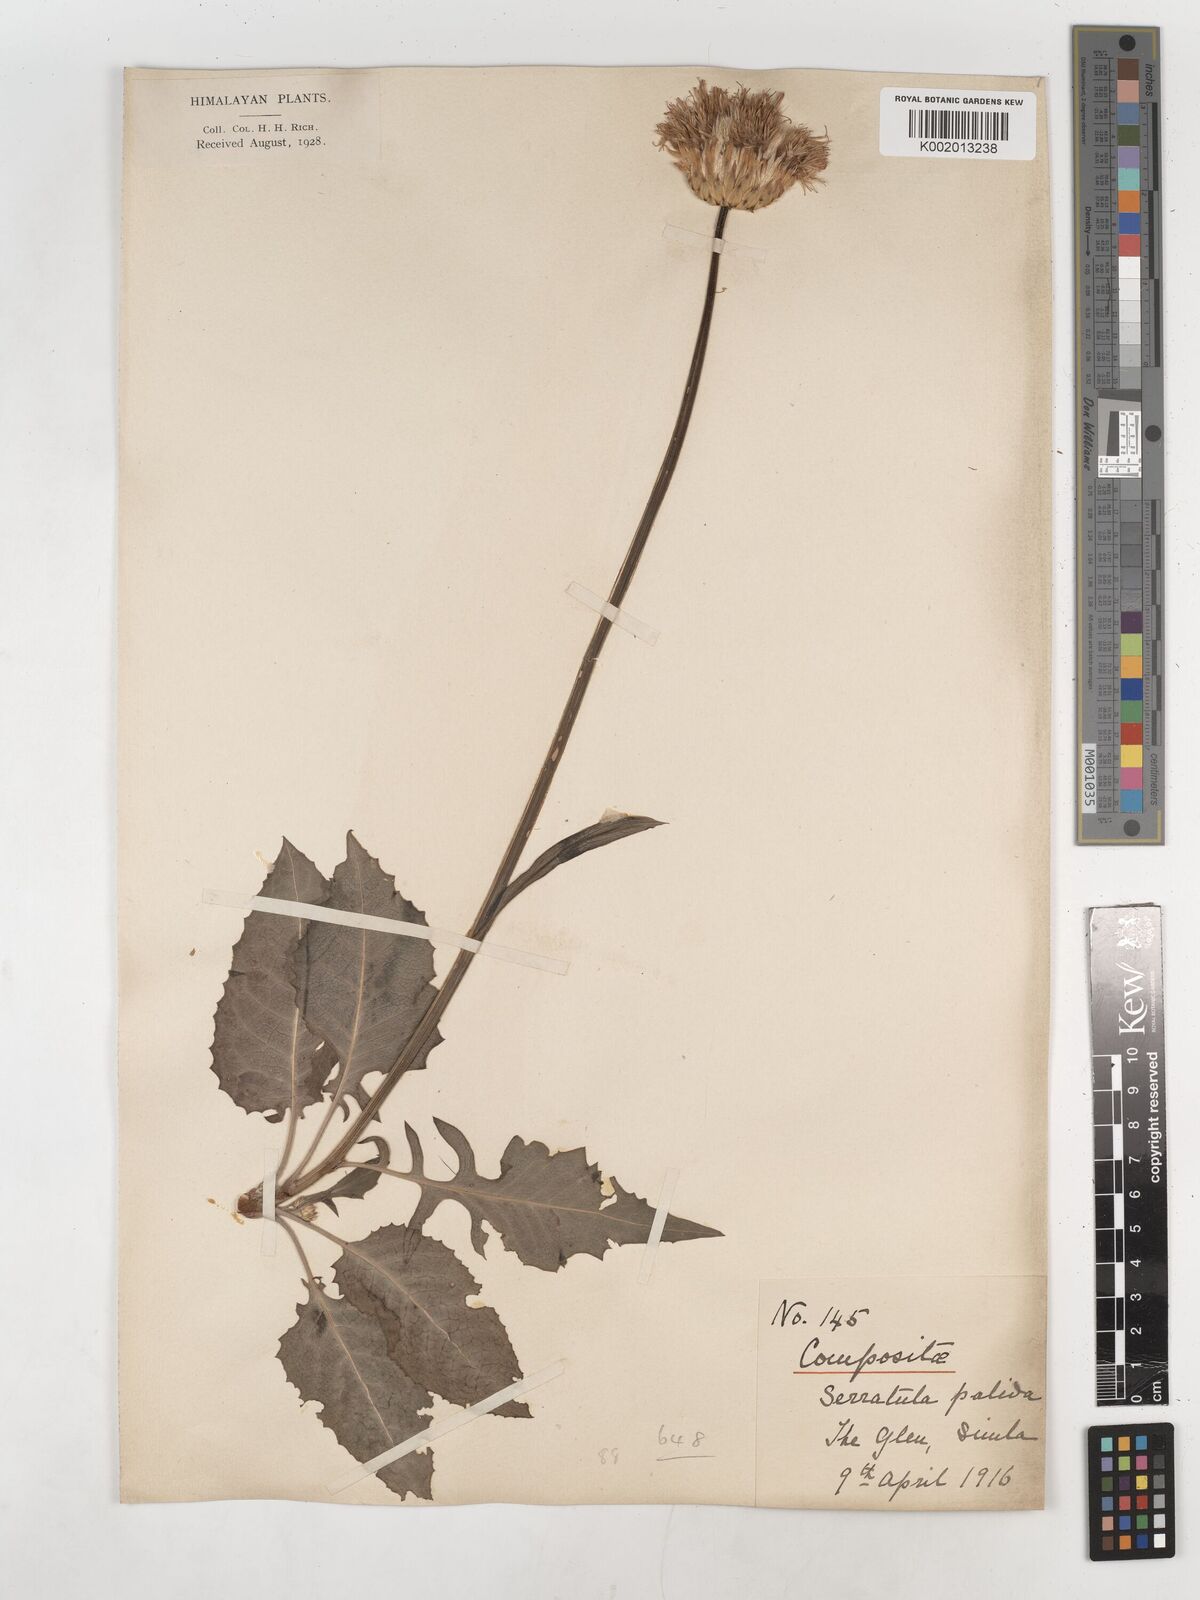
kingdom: Plantae
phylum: Tracheophyta
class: Magnoliopsida
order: Asterales
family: Asteraceae
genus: Klasea
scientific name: Klasea pallida
